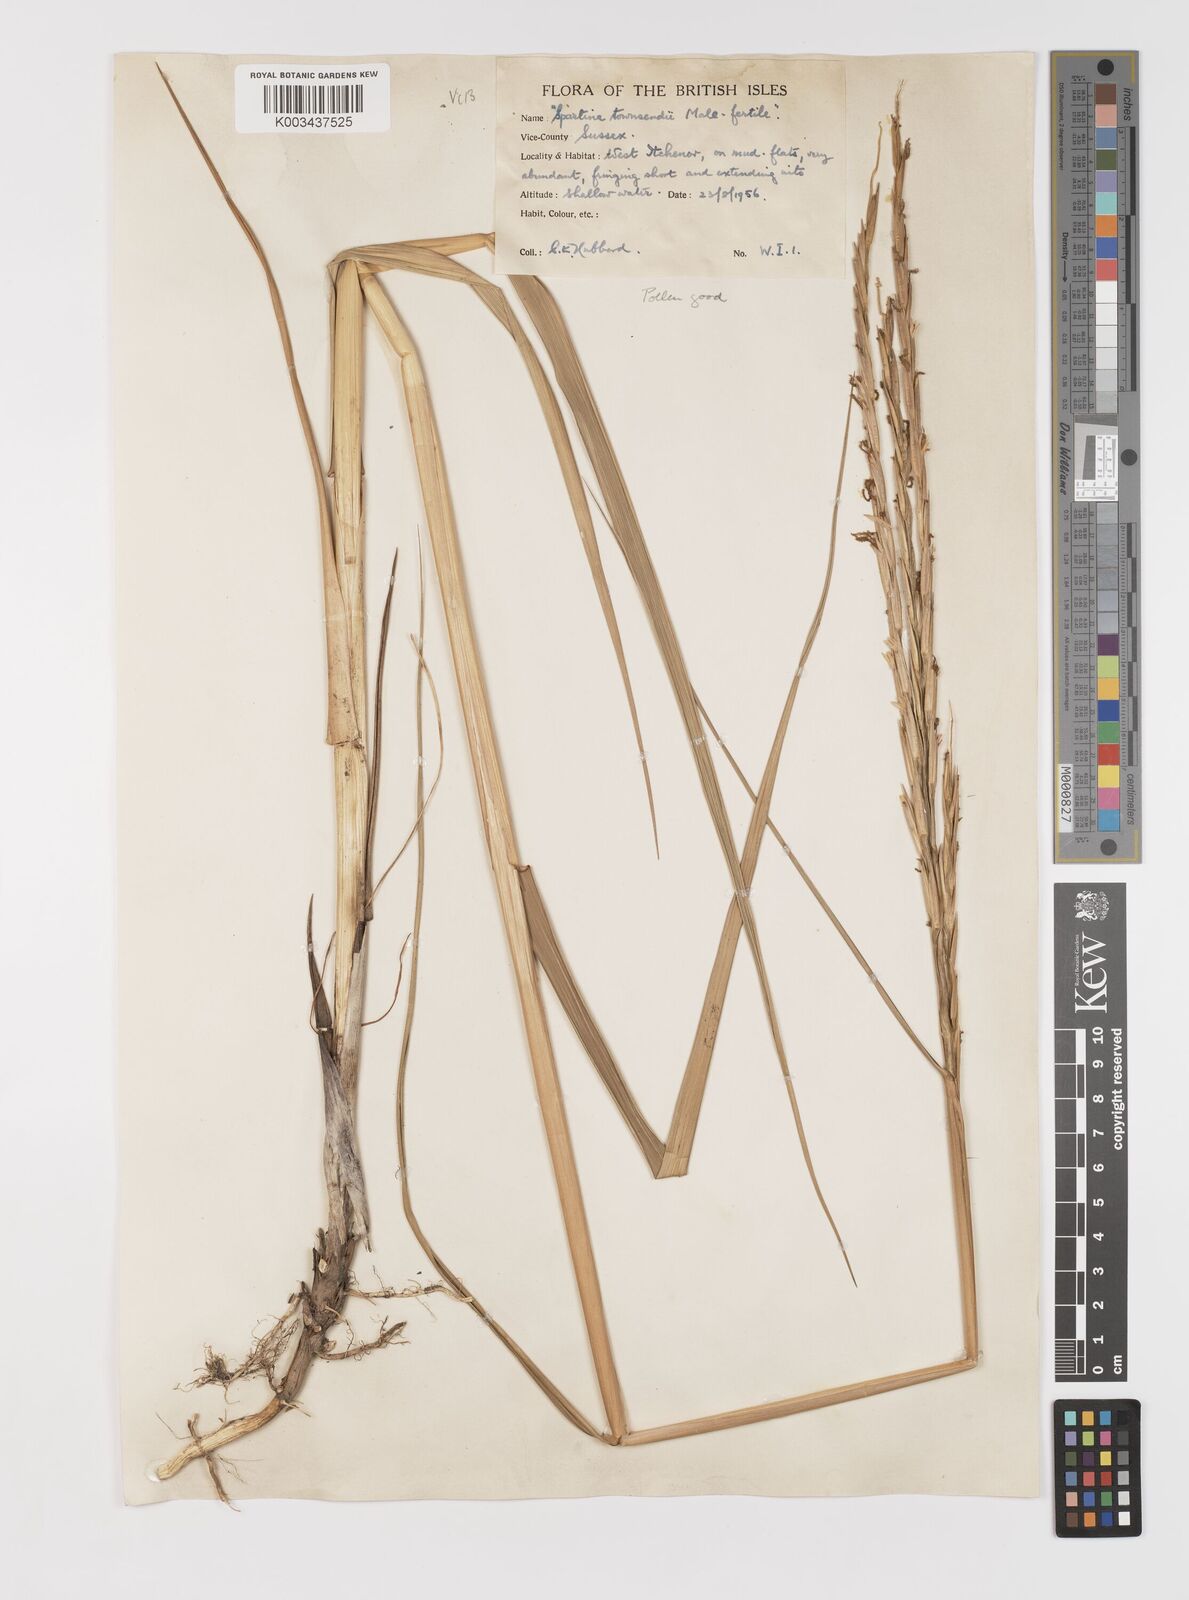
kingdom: Plantae
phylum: Tracheophyta
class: Liliopsida
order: Poales
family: Poaceae
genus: Sporobolus
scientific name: Sporobolus anglicus
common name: English cordgrass
